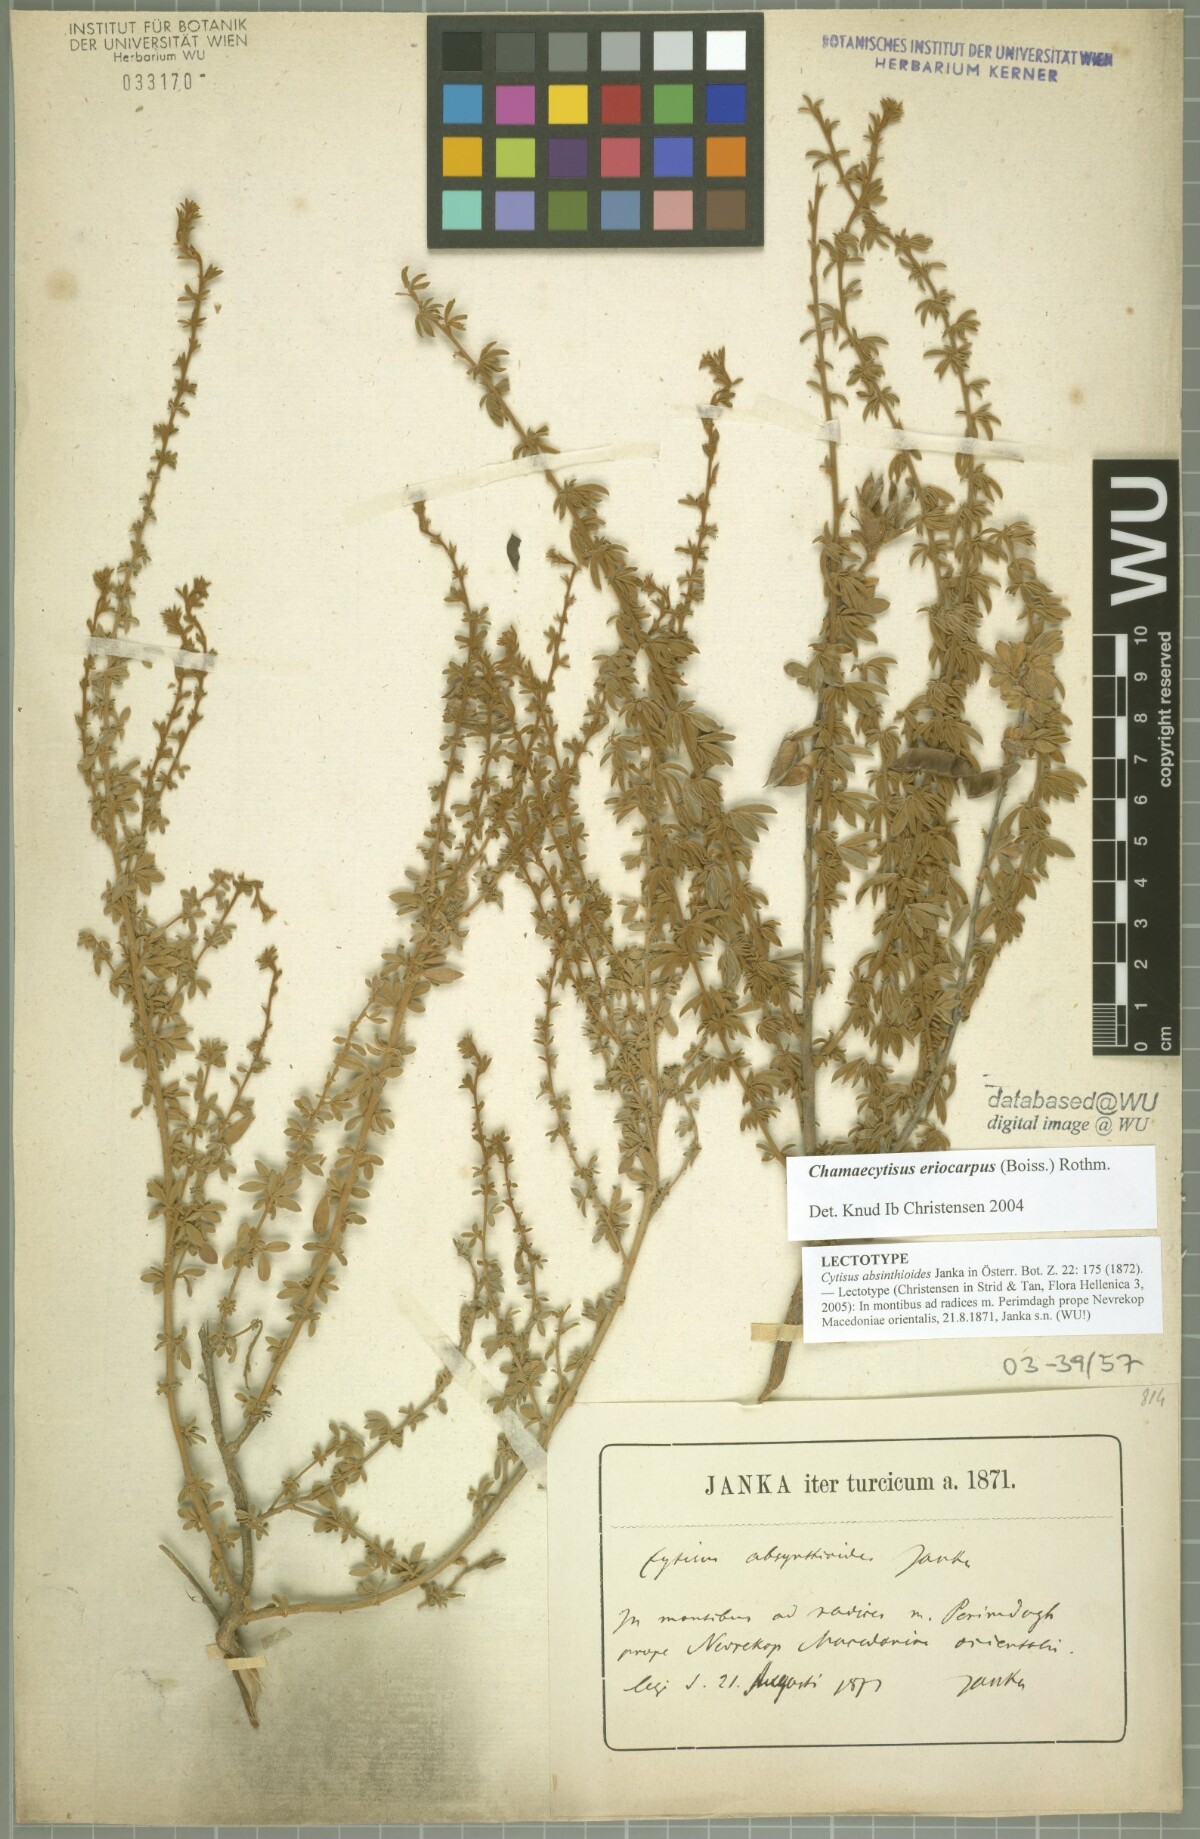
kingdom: Plantae
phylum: Tracheophyta
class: Magnoliopsida
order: Fabales
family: Fabaceae
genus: Chamaecytisus
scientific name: Chamaecytisus eriocarpus
